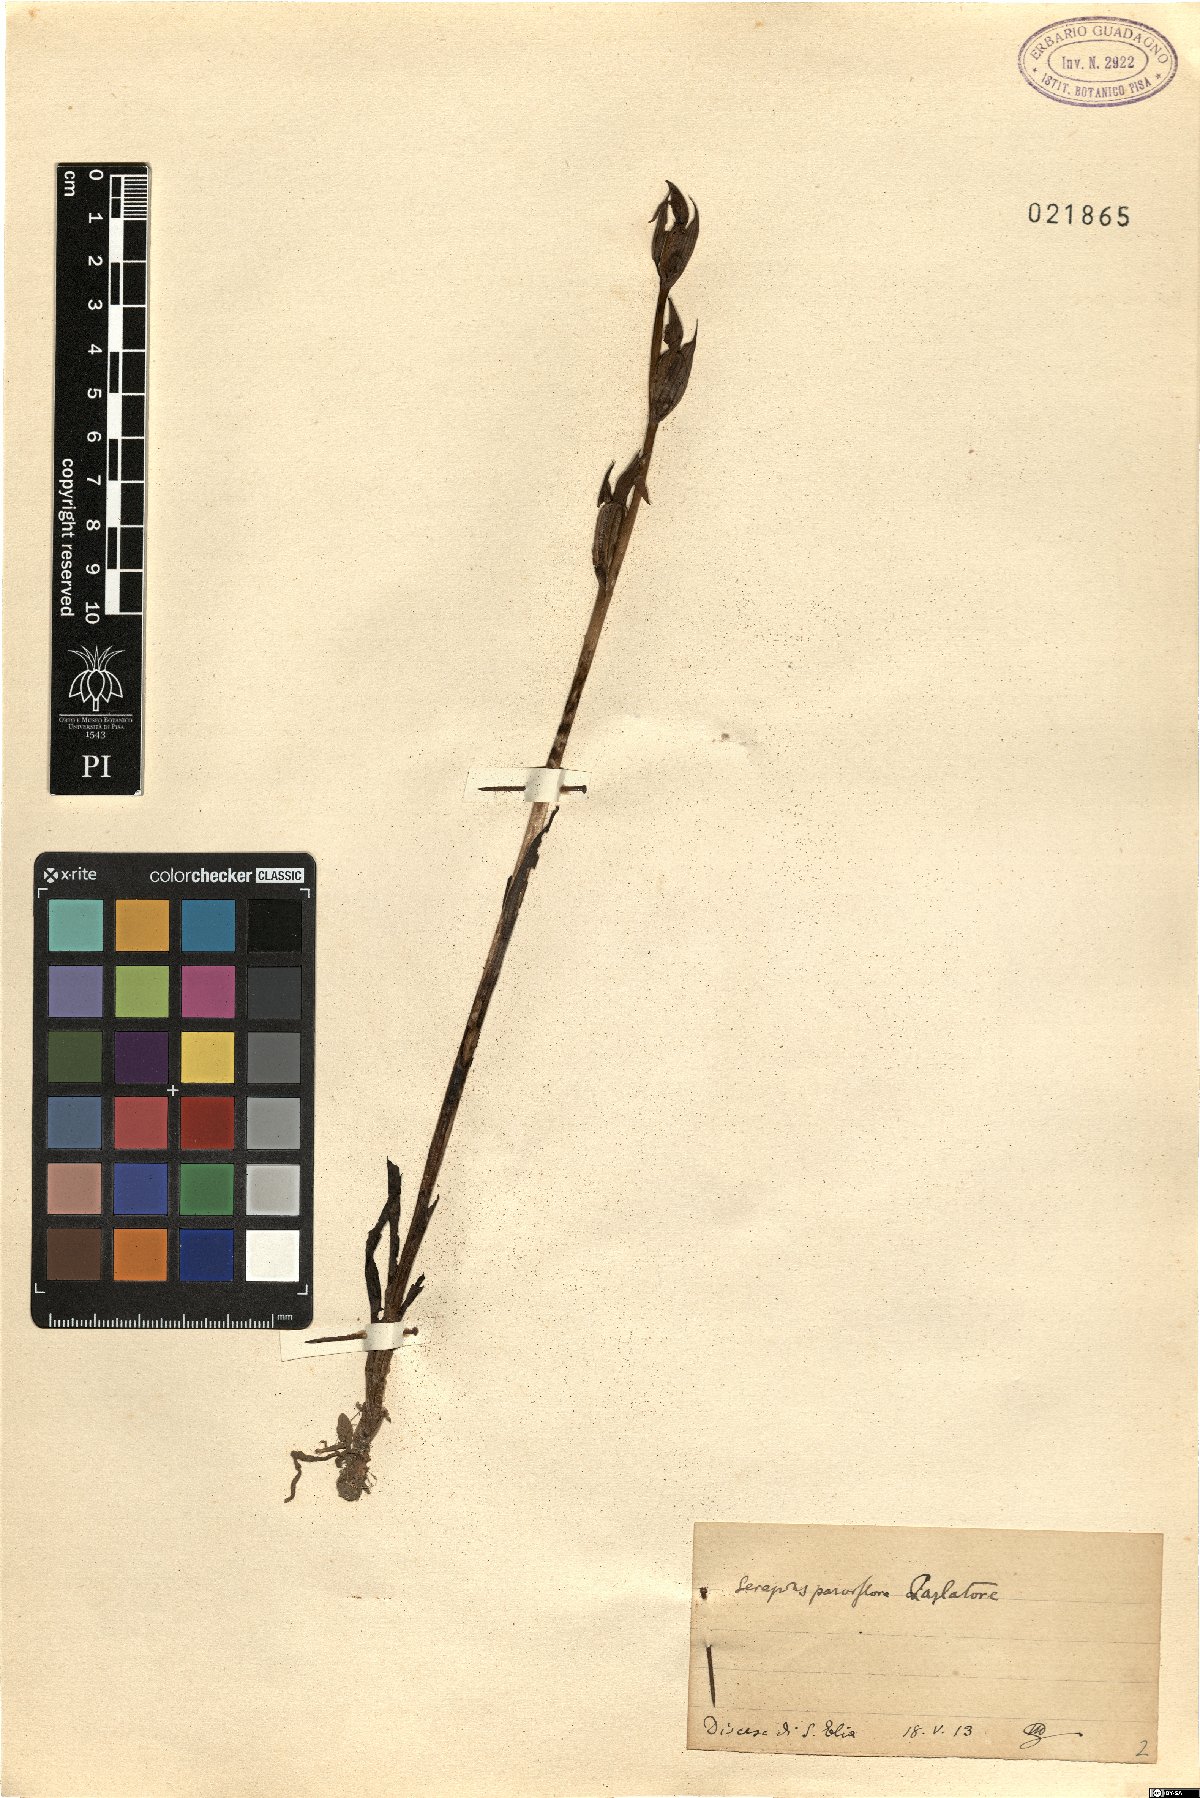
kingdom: Plantae
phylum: Tracheophyta
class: Liliopsida
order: Asparagales
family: Orchidaceae
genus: Serapias
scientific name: Serapias parviflora
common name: Small-flowered tongue-orchid
